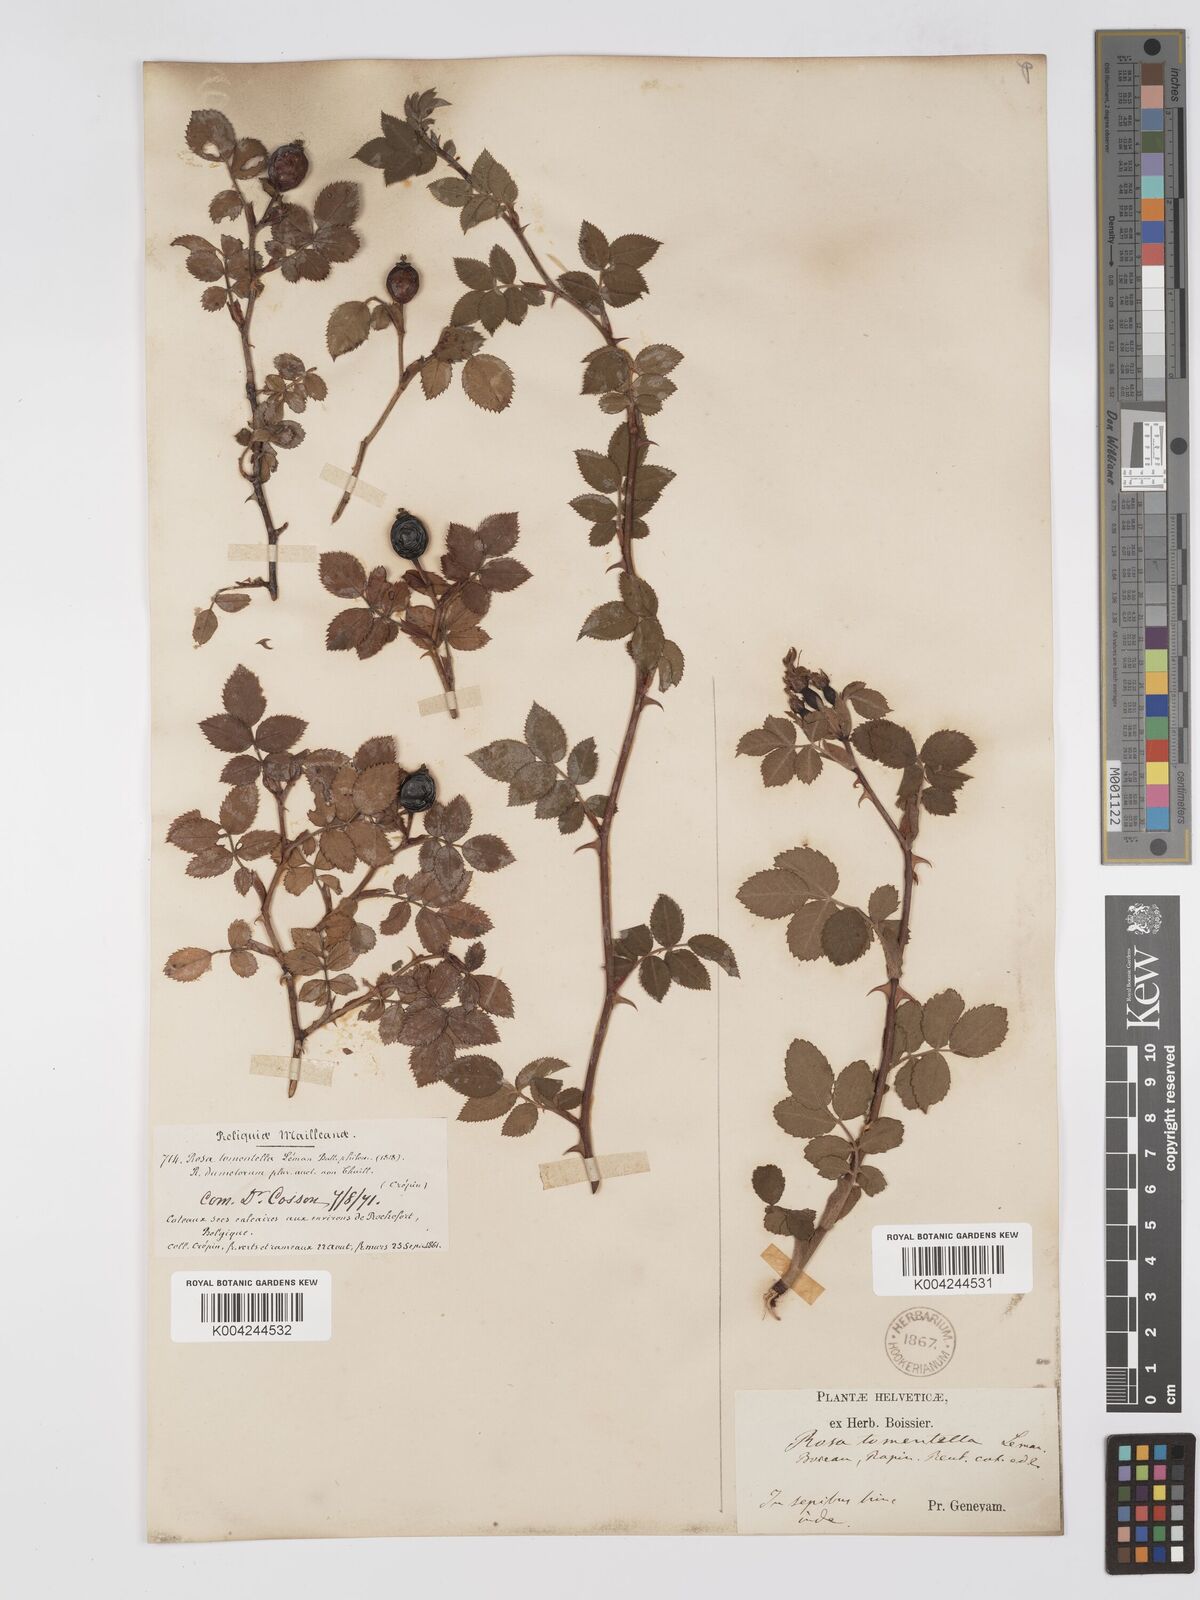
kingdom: Plantae
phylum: Tracheophyta
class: Magnoliopsida
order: Rosales
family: Rosaceae
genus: Rosa
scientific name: Rosa
